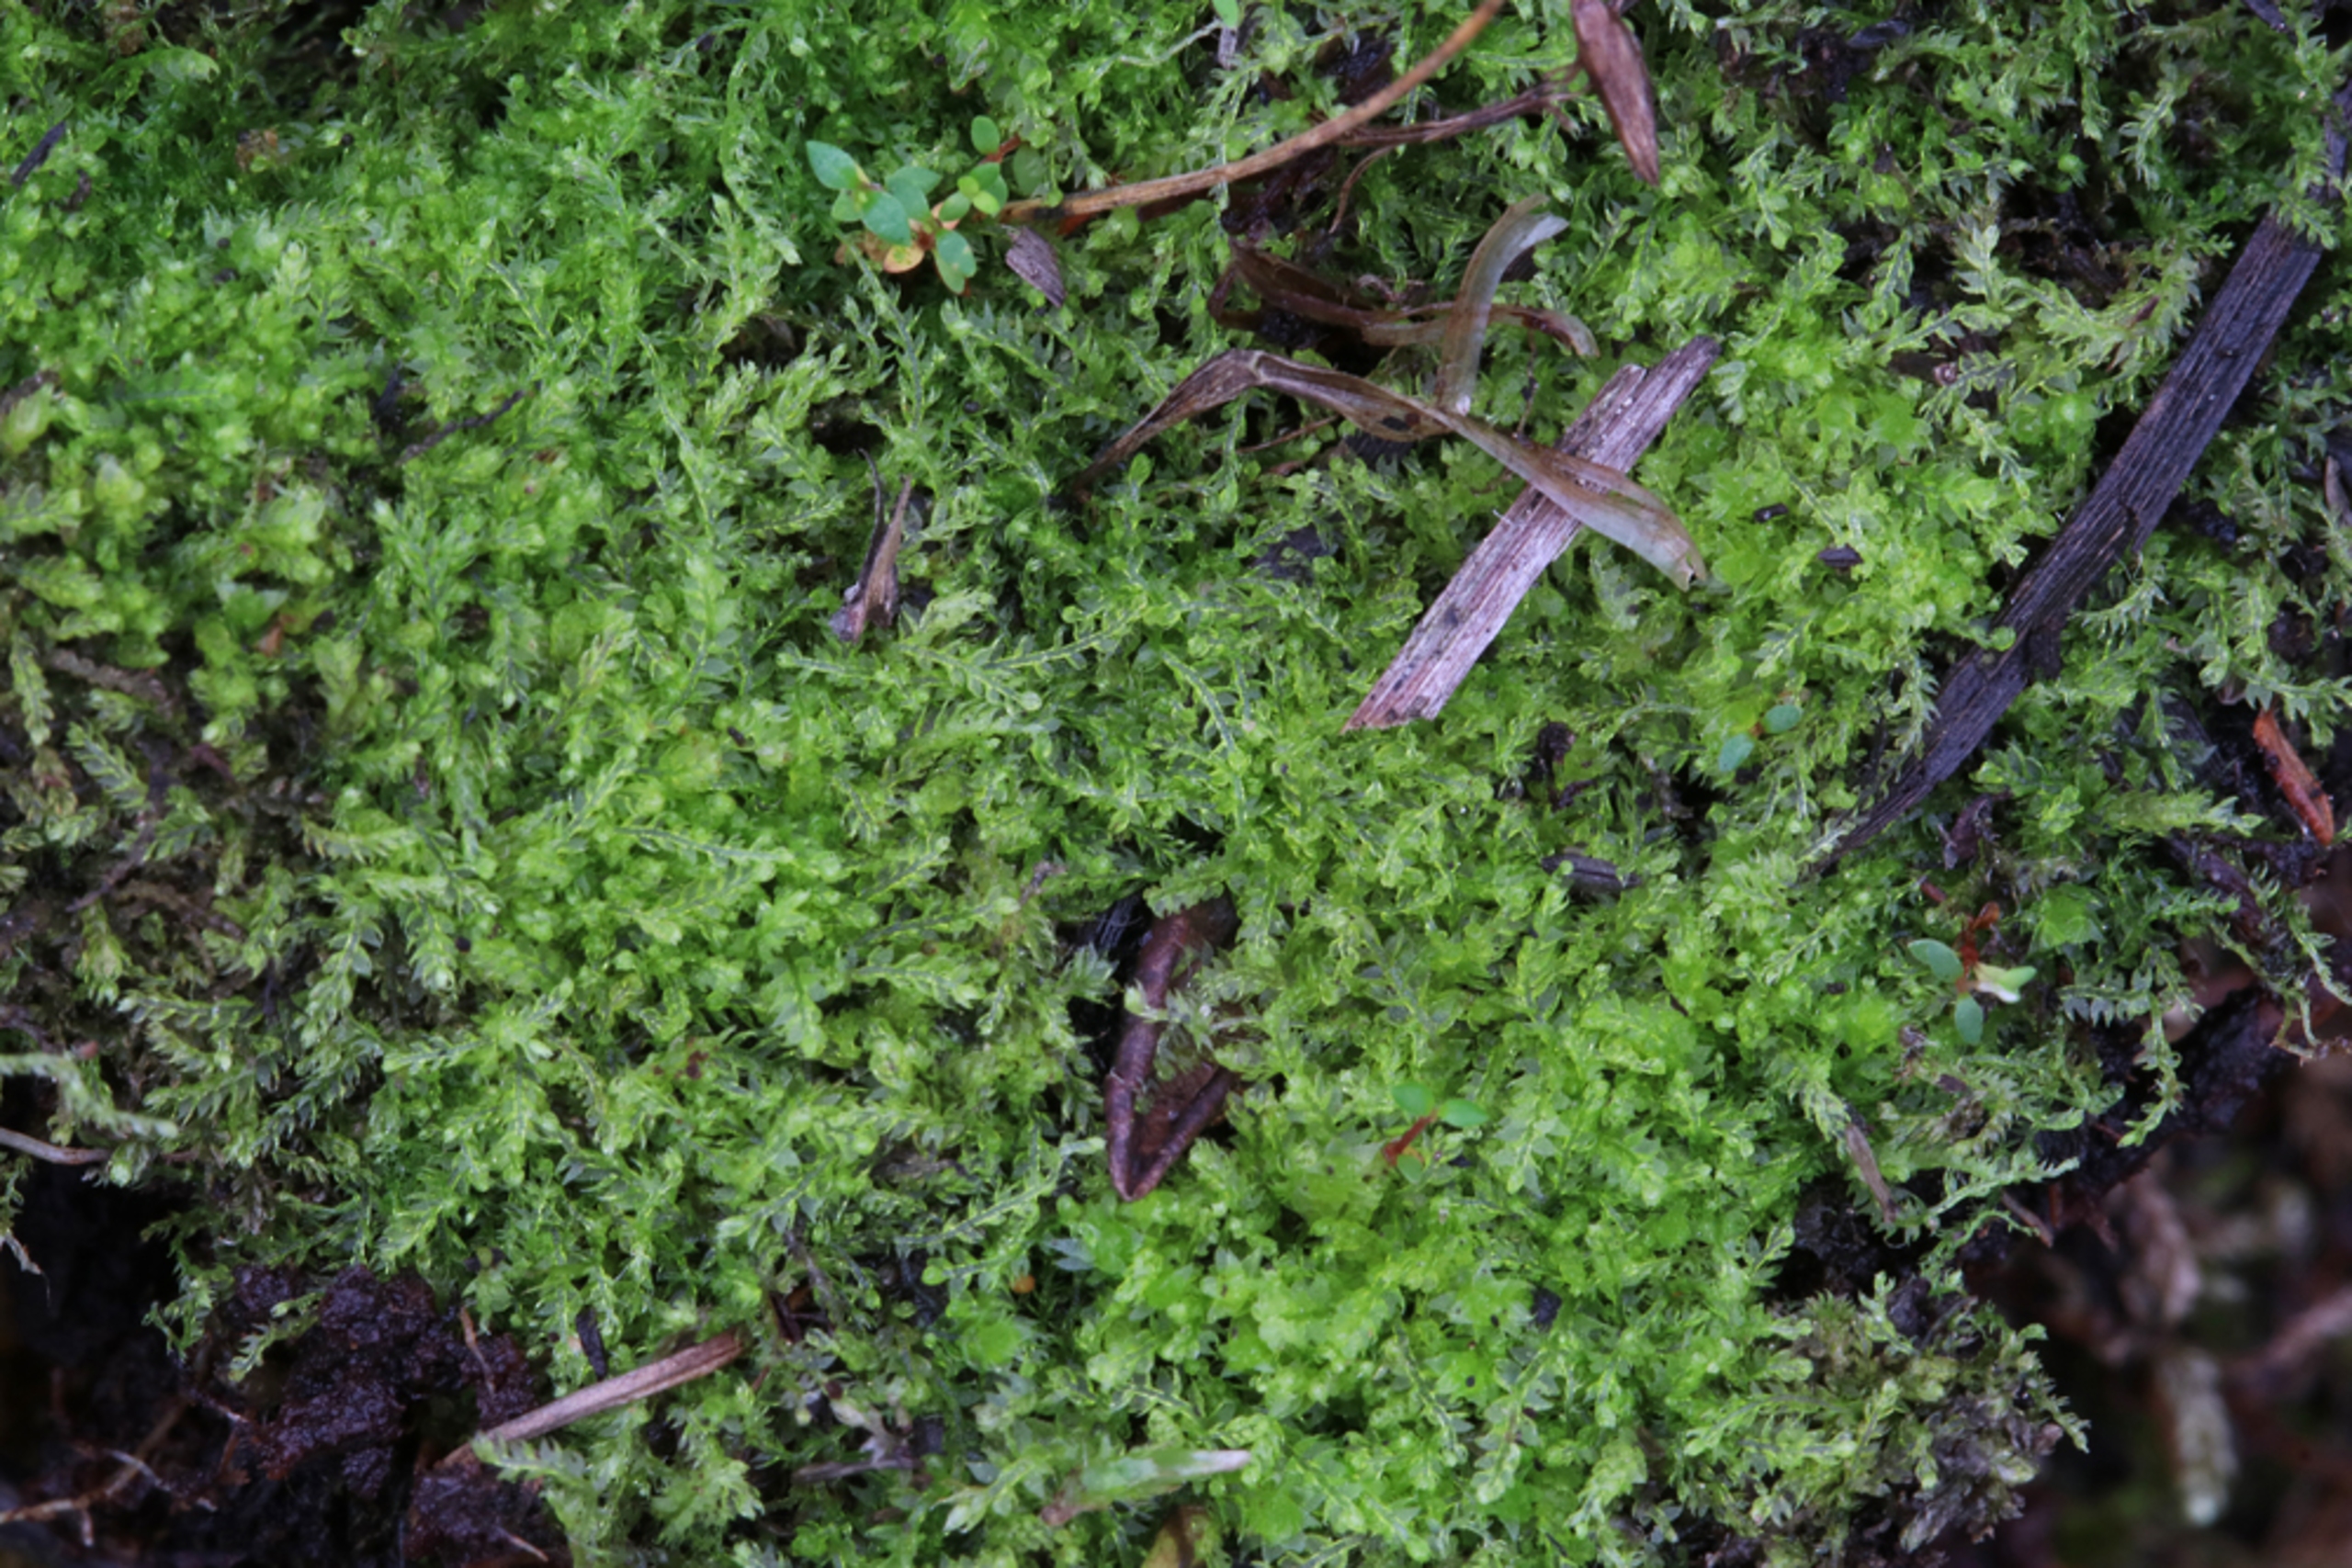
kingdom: Plantae
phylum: Marchantiophyta
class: Jungermanniopsida
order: Jungermanniales
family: Cephaloziaceae
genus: Cephalozia
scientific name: Cephalozia bicuspidata
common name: Væld-kantbæger
